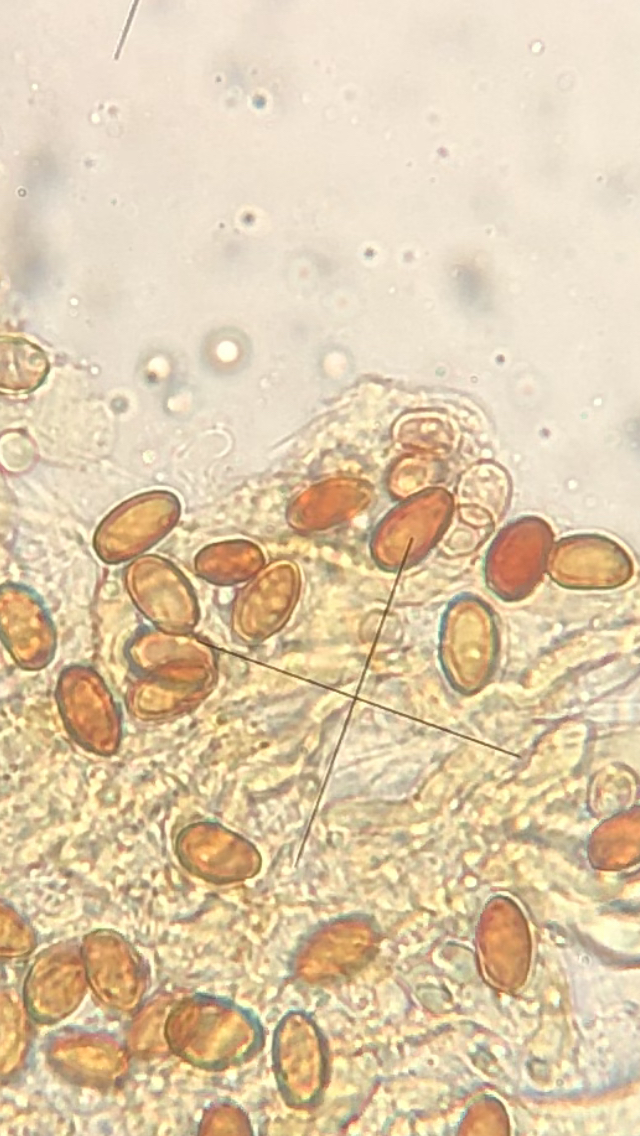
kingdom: Fungi
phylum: Basidiomycota
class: Agaricomycetes
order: Boletales
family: Coniophoraceae
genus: Coniophora
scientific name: Coniophora arida
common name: tynd tømmersvamp
